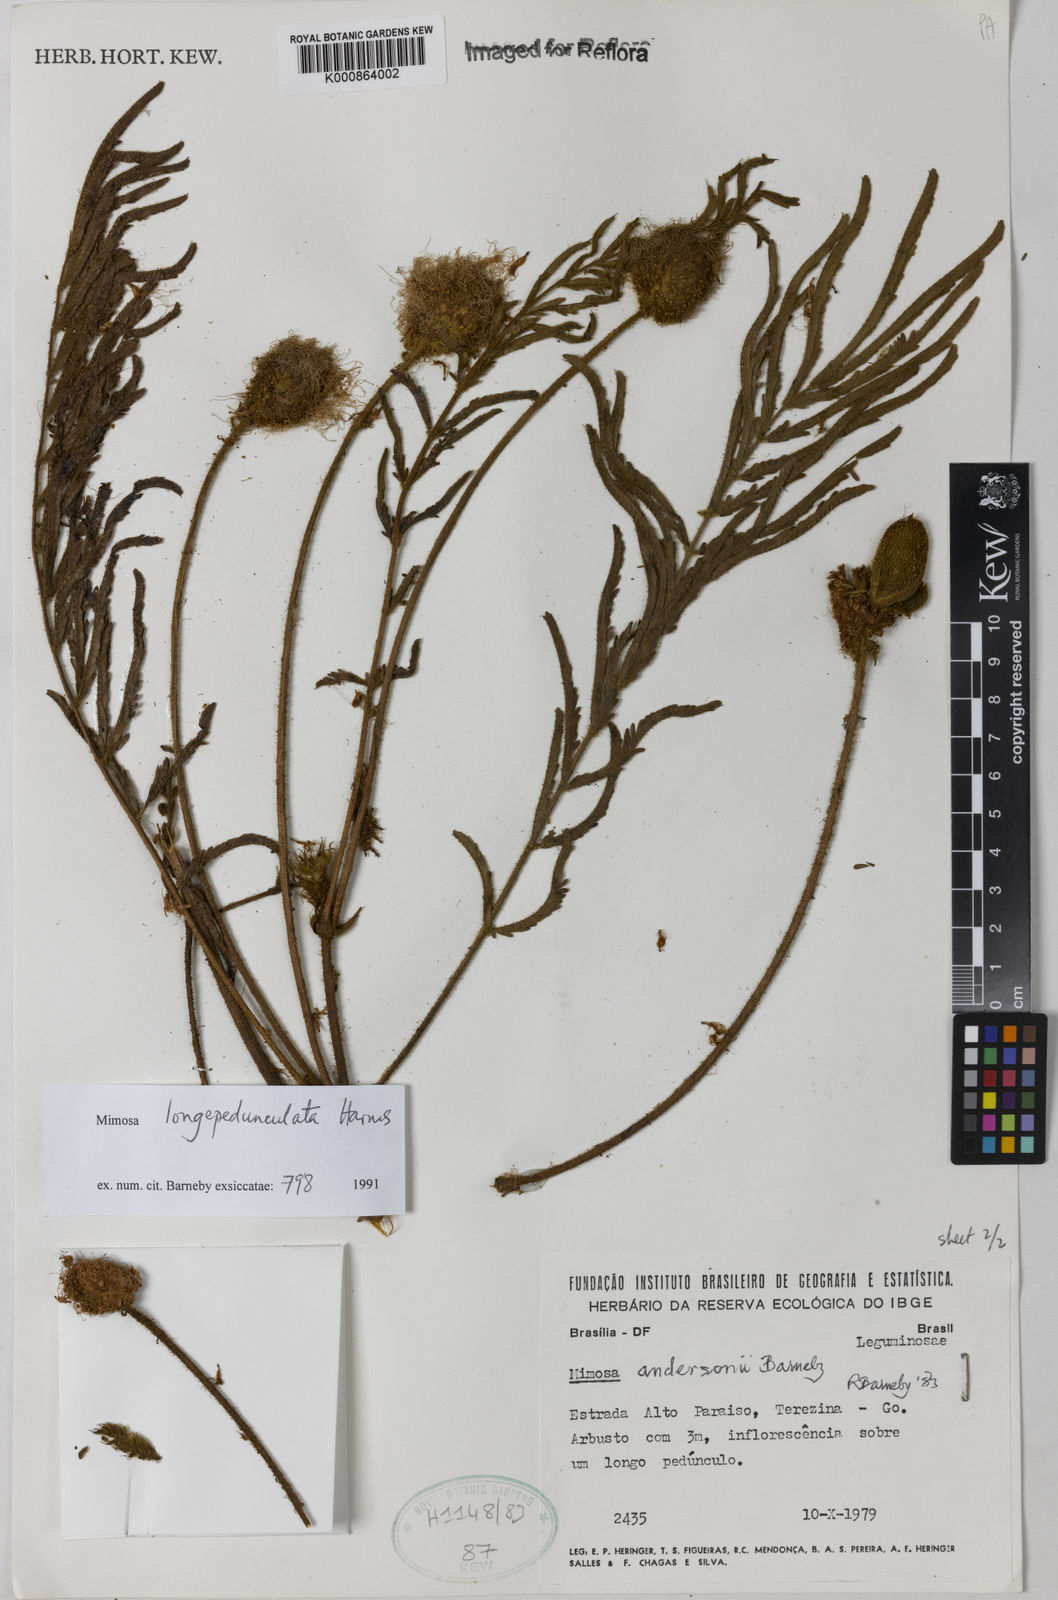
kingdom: Plantae
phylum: Tracheophyta
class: Magnoliopsida
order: Fabales
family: Fabaceae
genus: Mimosa
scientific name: Mimosa longepedunculata
